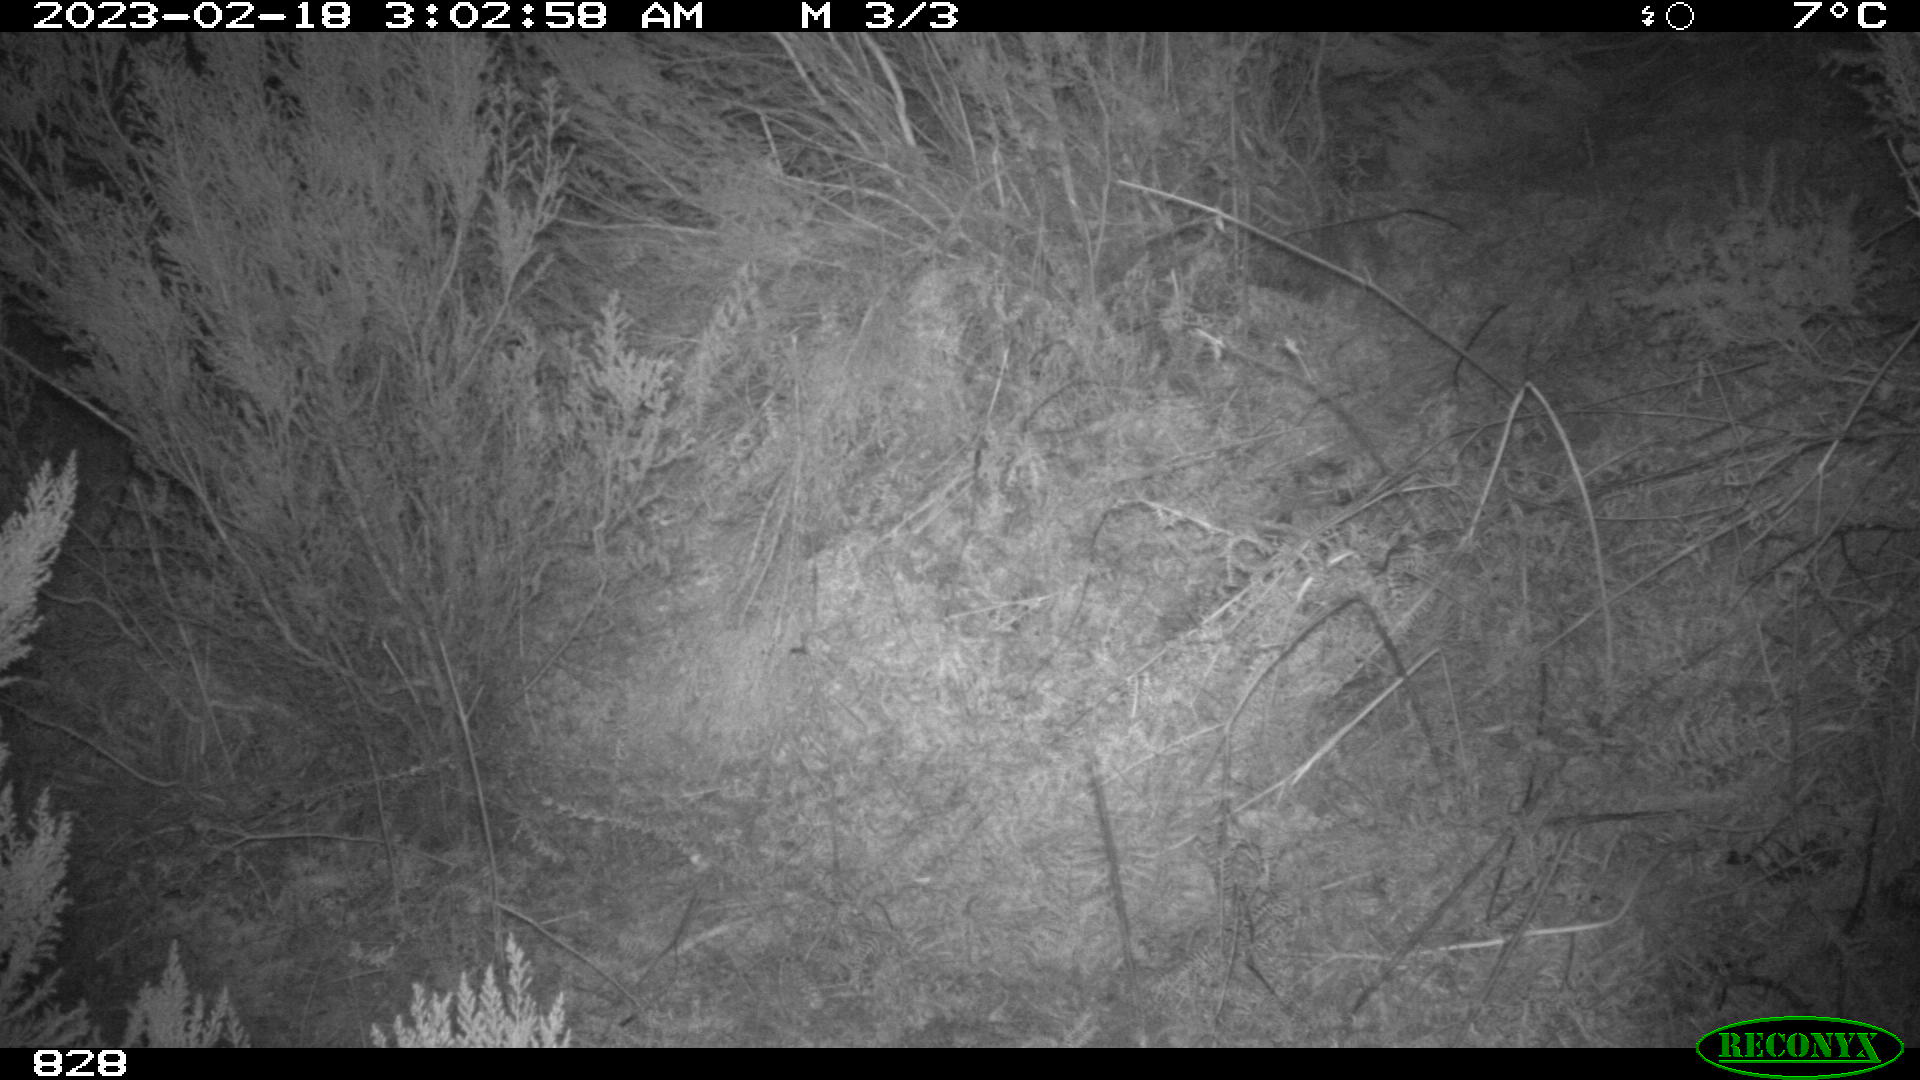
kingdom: Animalia
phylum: Chordata
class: Mammalia
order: Artiodactyla
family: Suidae
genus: Sus
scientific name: Sus scrofa
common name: Wild boar
